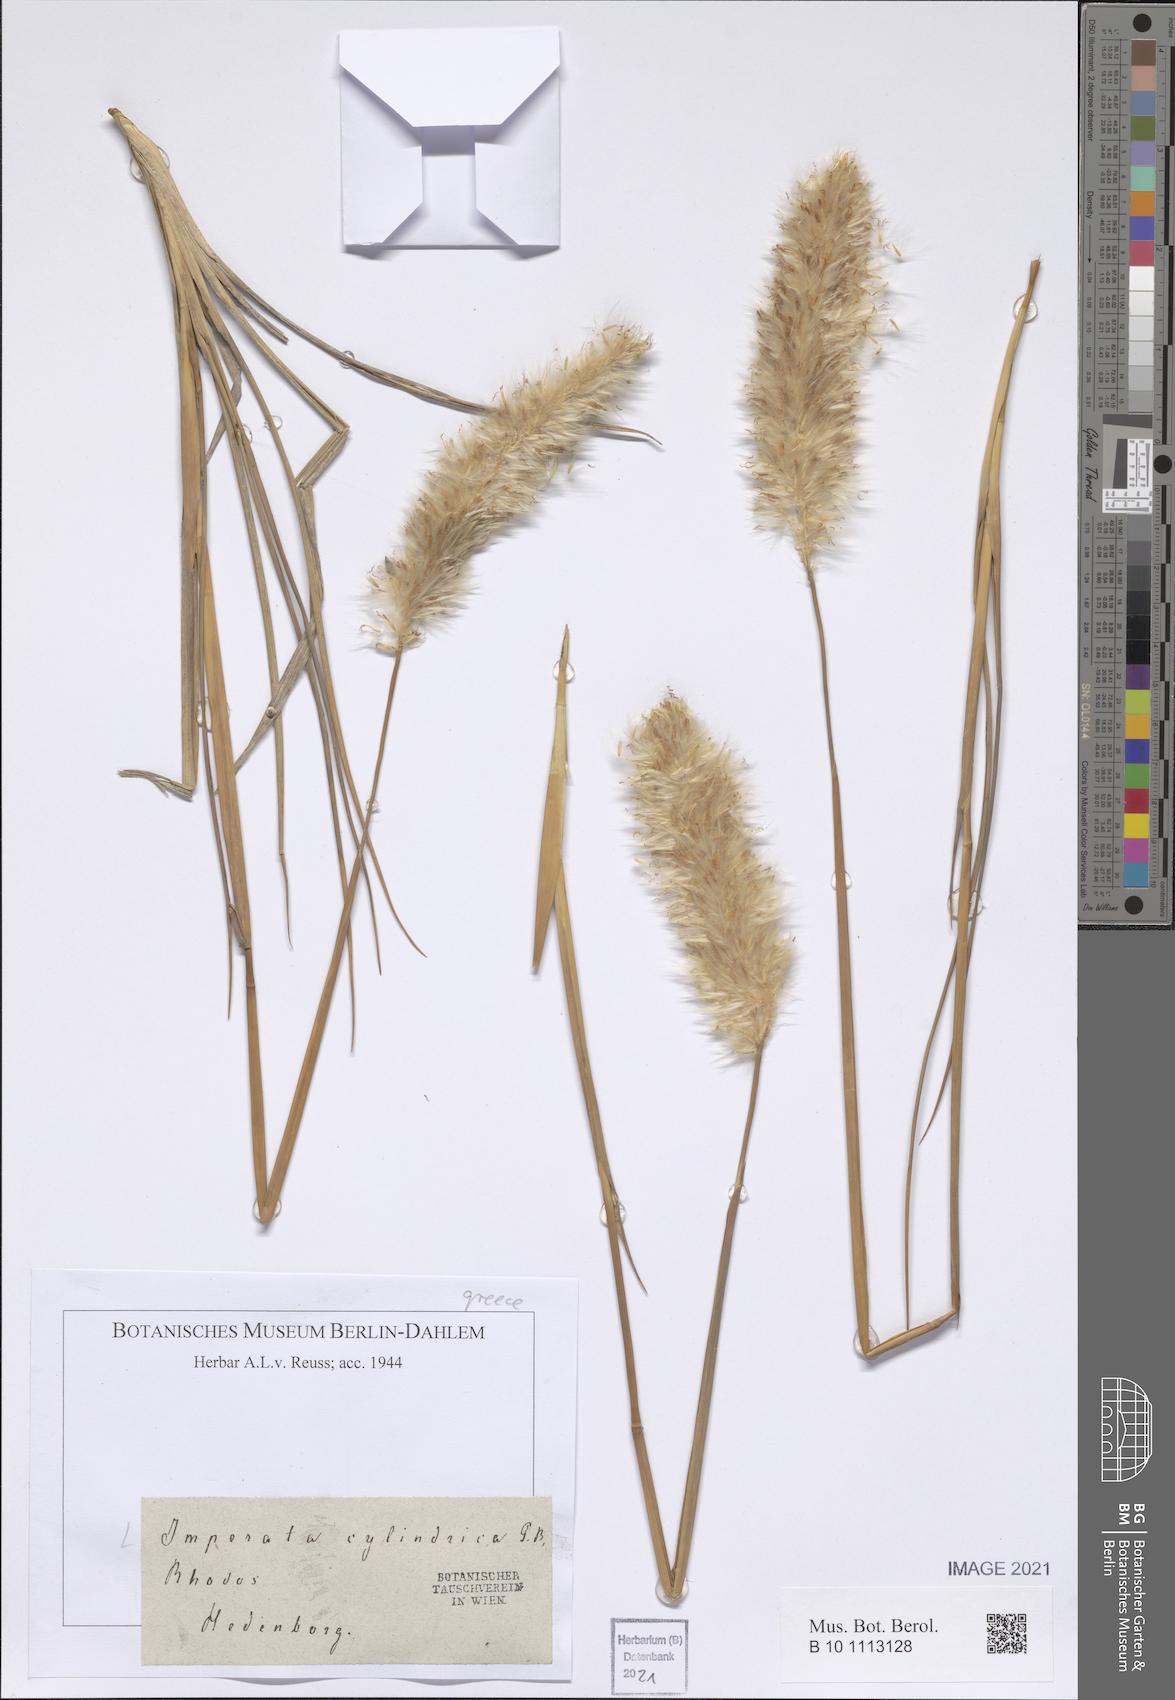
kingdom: Plantae
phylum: Tracheophyta
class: Liliopsida
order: Poales
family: Poaceae
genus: Imperata
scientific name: Imperata cylindrica
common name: Cogongrass
